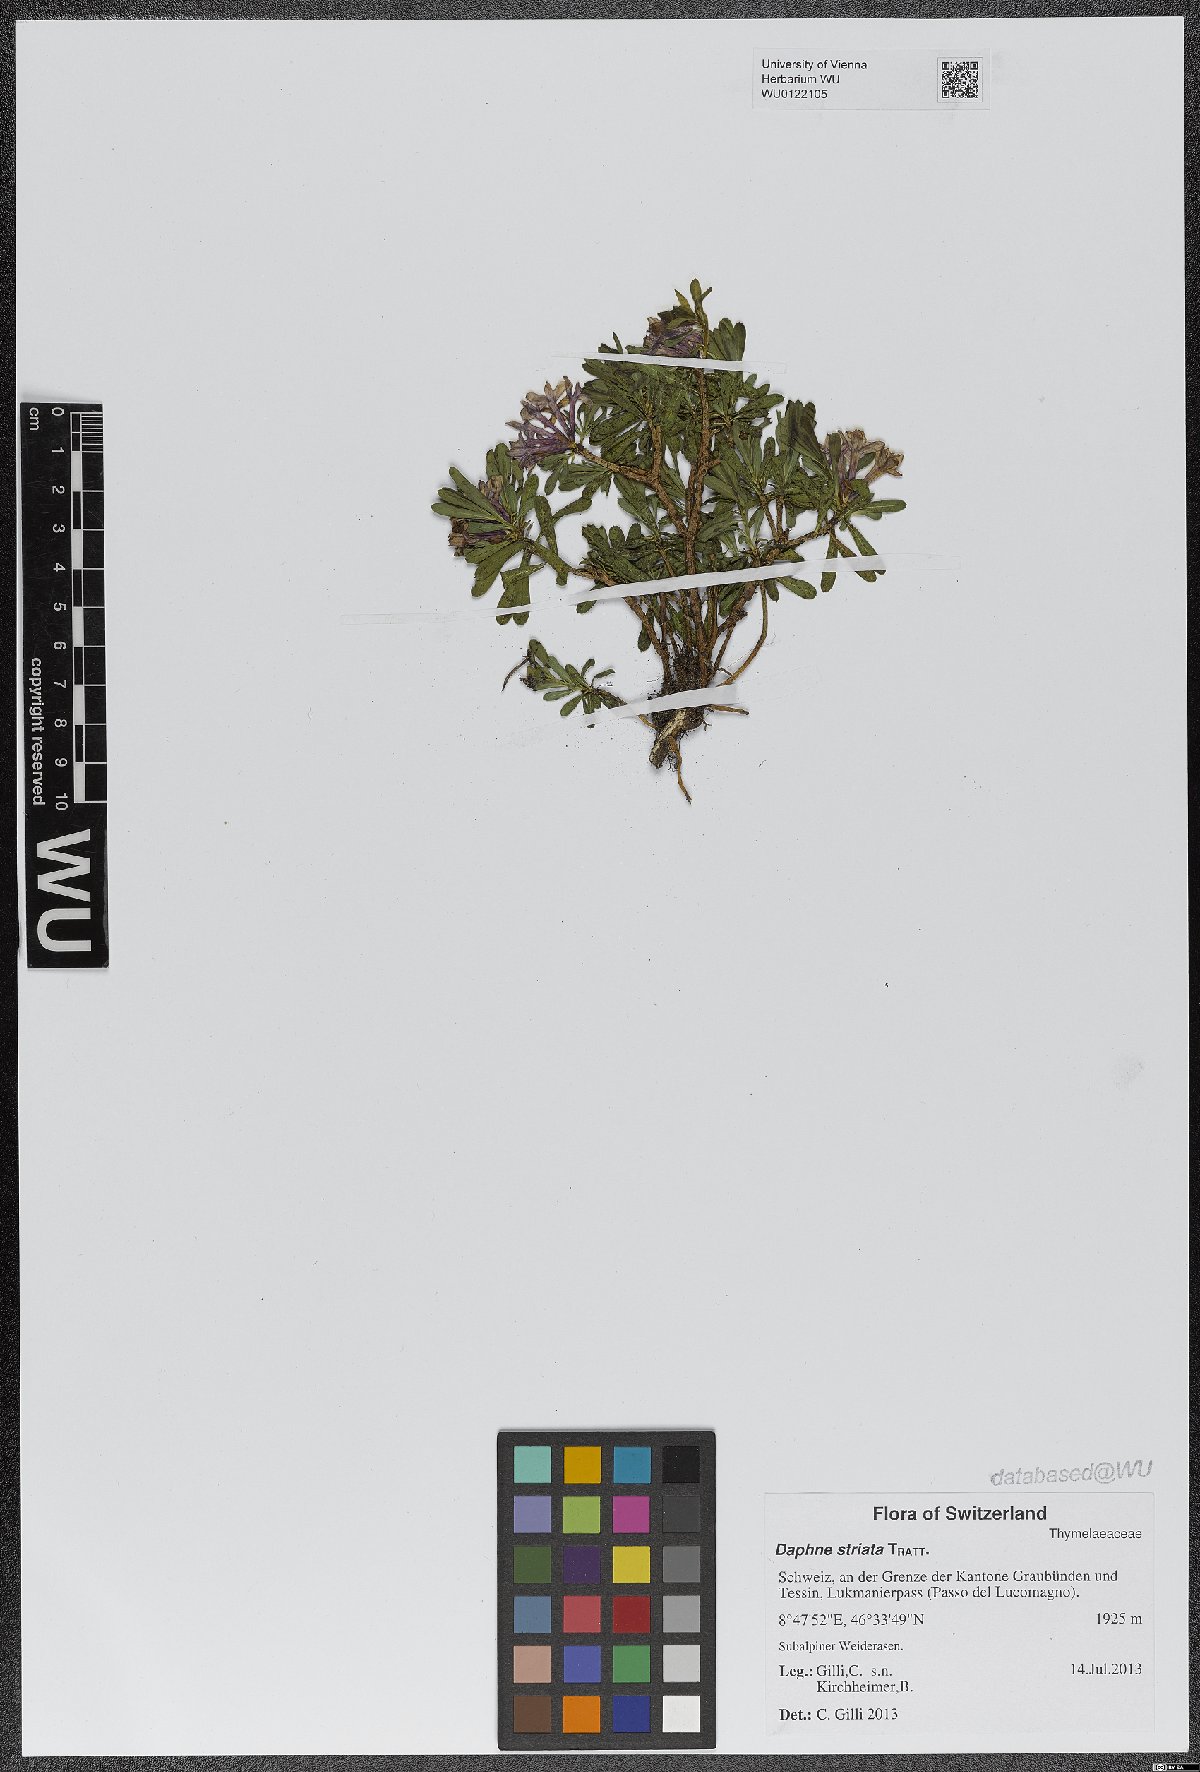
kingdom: Plantae
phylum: Tracheophyta
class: Magnoliopsida
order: Malvales
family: Thymelaeaceae
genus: Daphne
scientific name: Daphne striata
